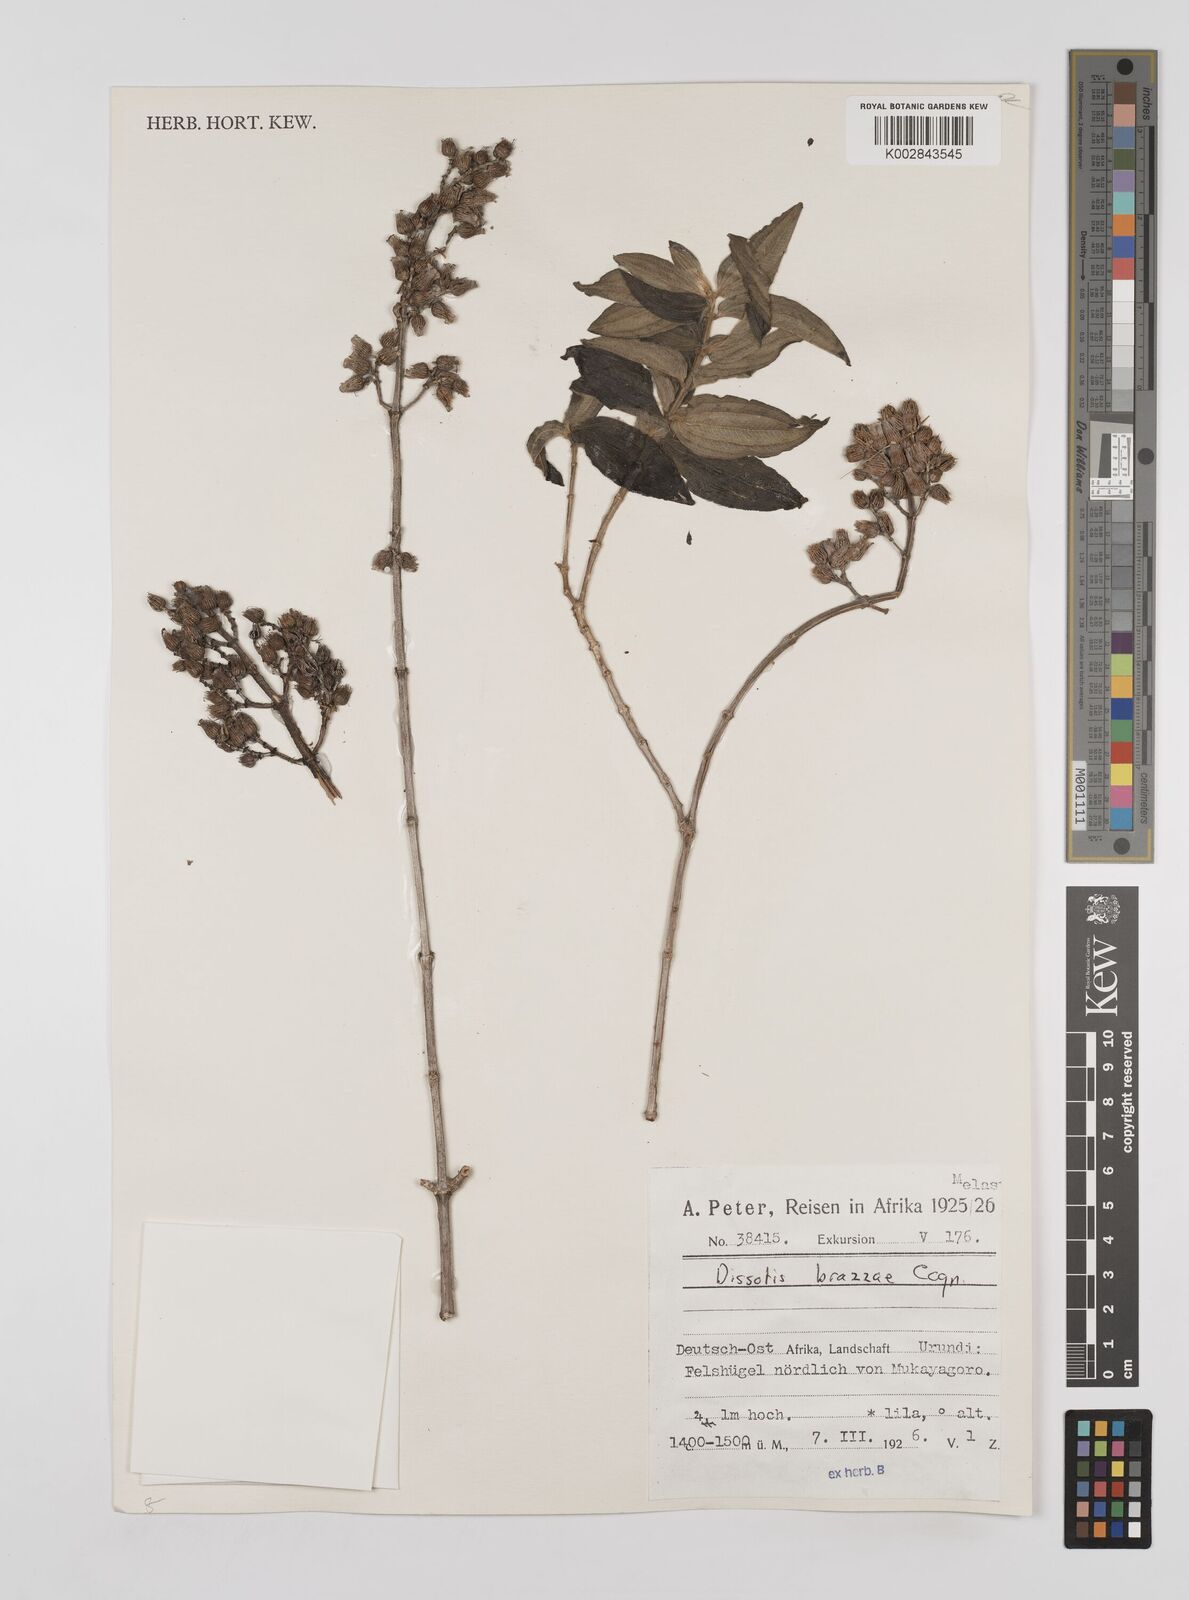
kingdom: Plantae
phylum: Tracheophyta
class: Magnoliopsida
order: Myrtales
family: Melastomataceae
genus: Dupineta
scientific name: Dupineta brazzae
